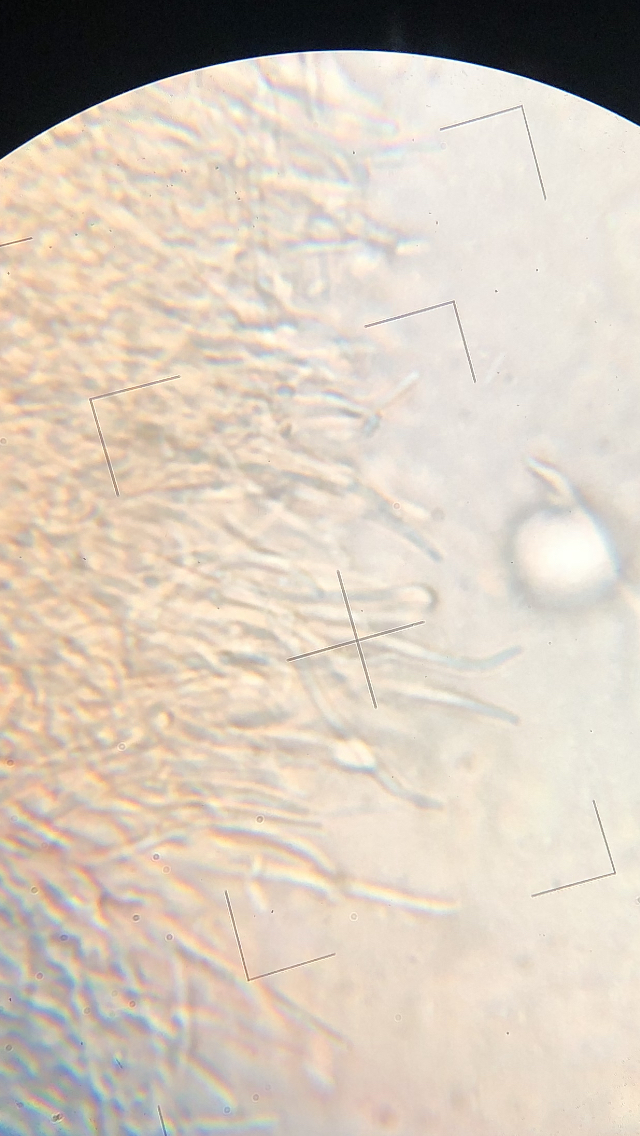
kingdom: Fungi
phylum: Ascomycota
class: Sordariomycetes
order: Hypocreales
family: Nectriaceae
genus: Dialonectria
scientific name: Dialonectria magnusiana
